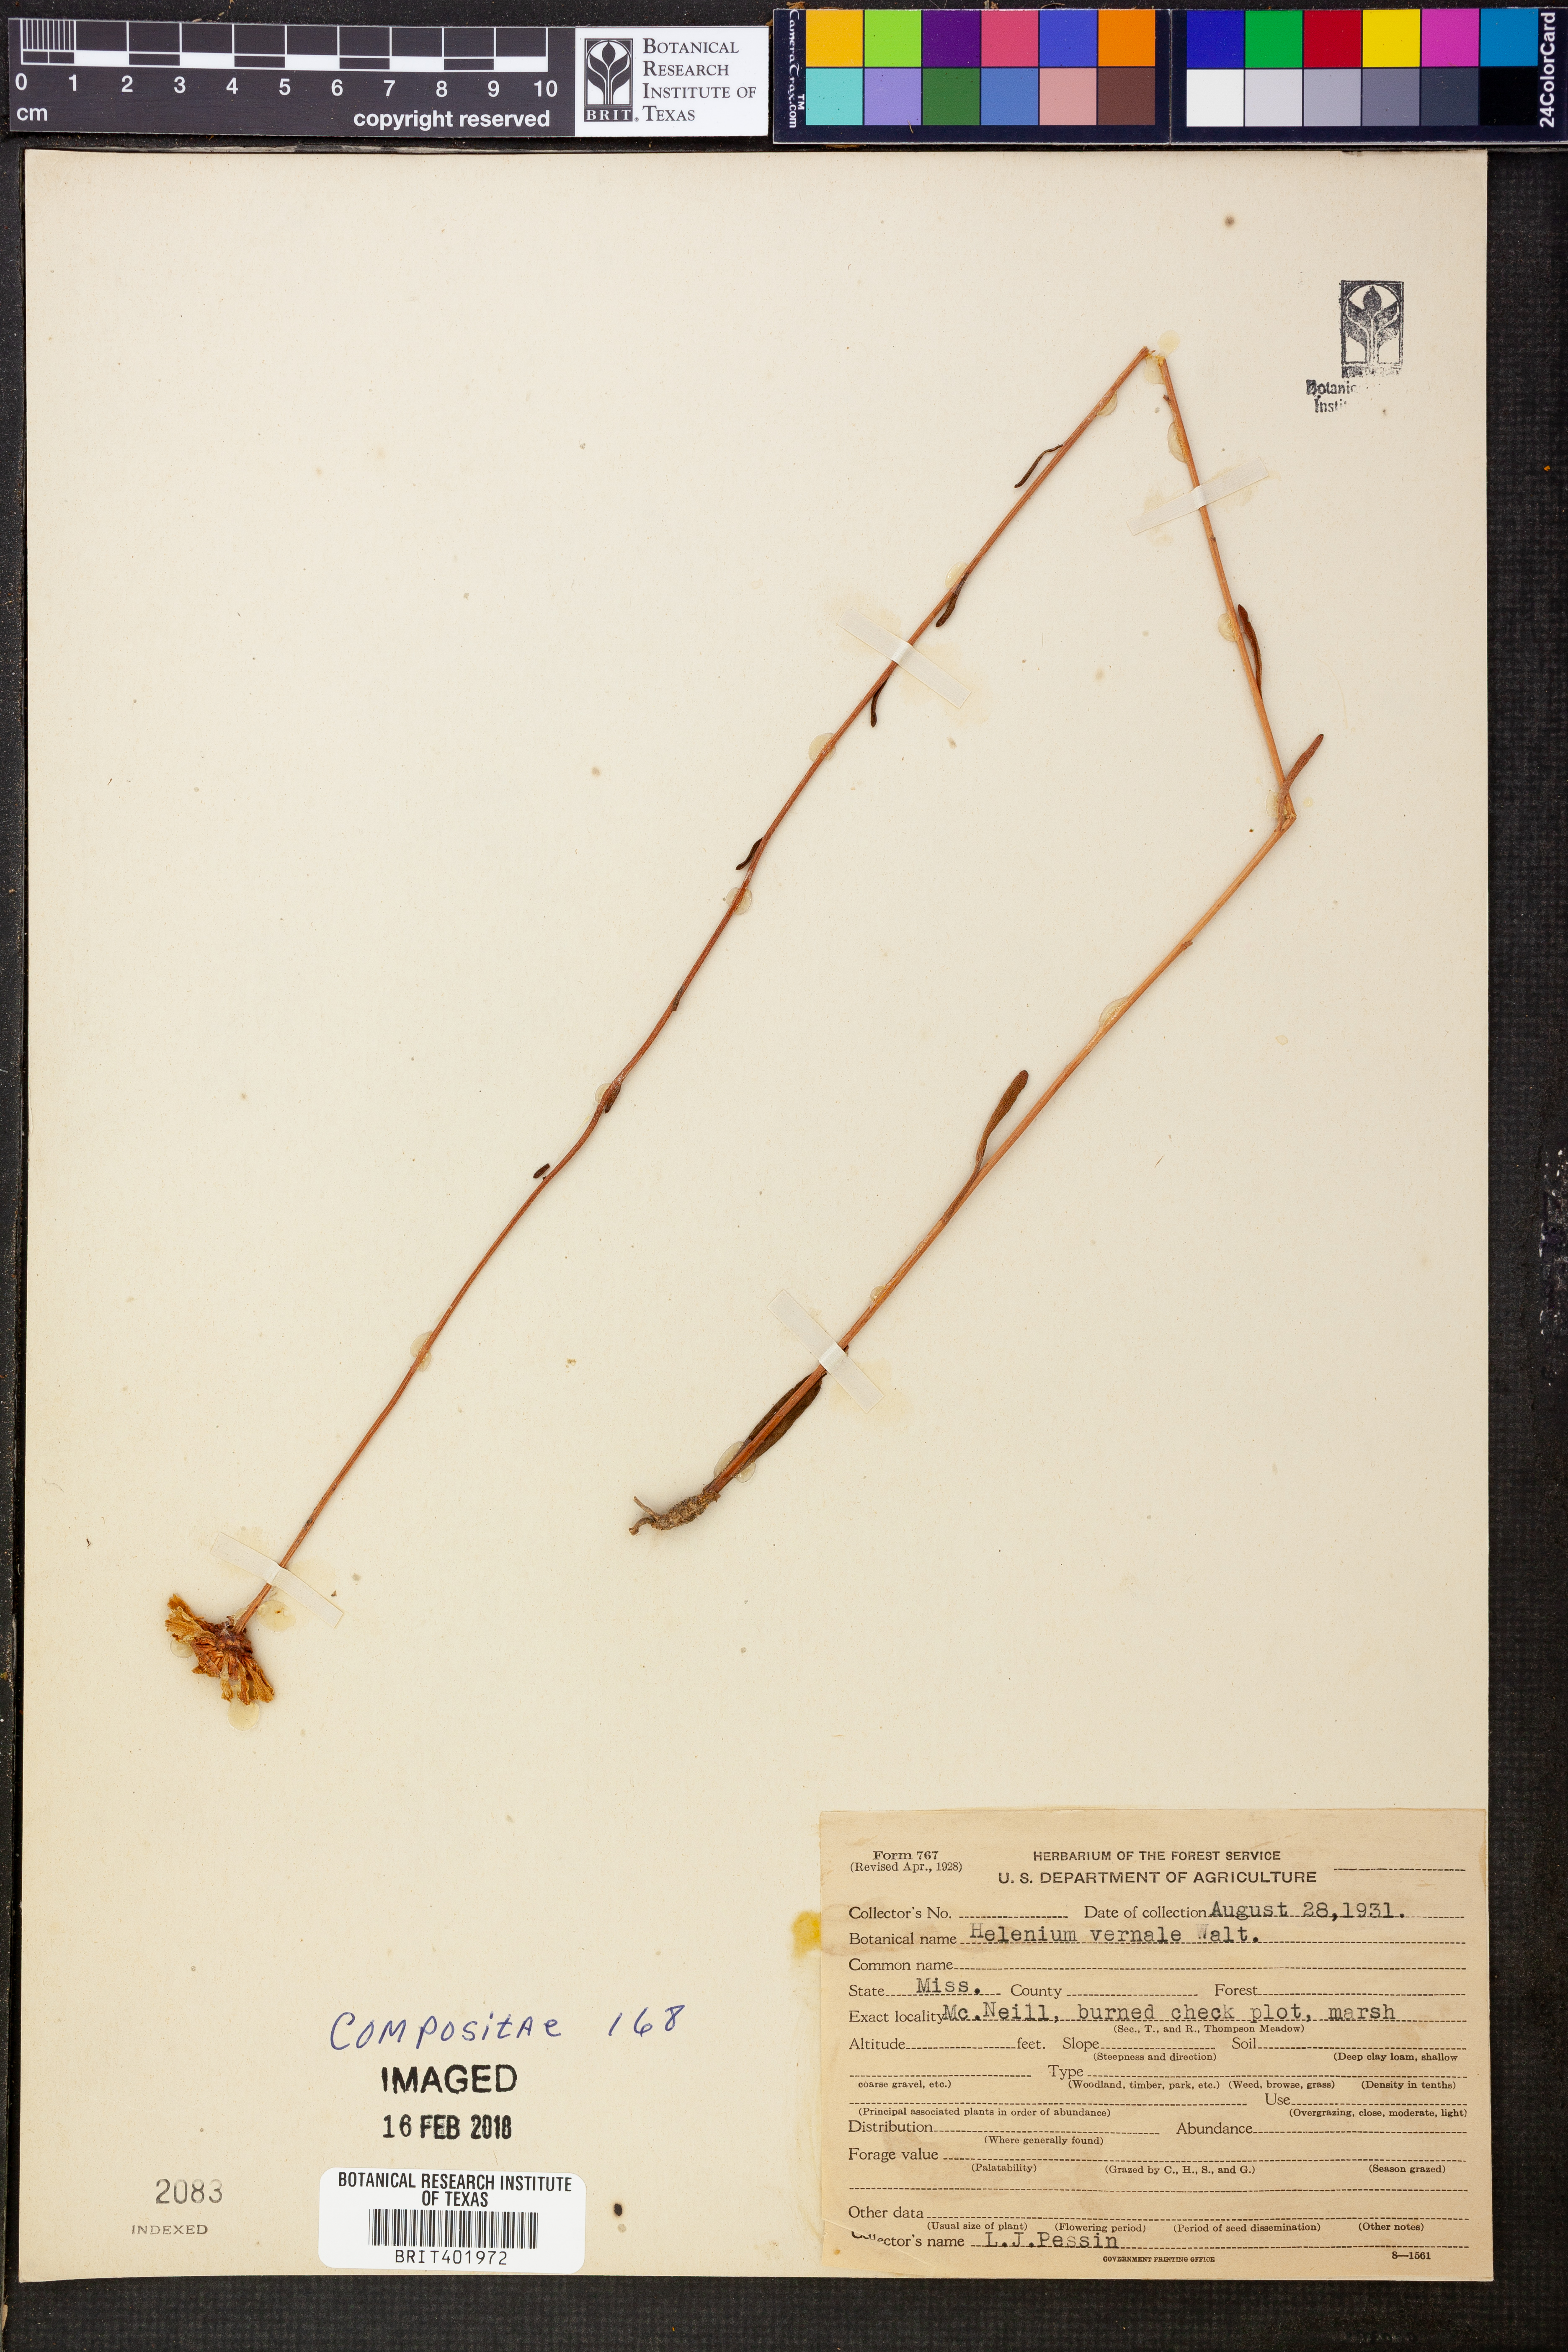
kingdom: Plantae
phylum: Tracheophyta
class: Magnoliopsida
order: Asterales
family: Asteraceae
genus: Helenium
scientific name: Helenium vernale
